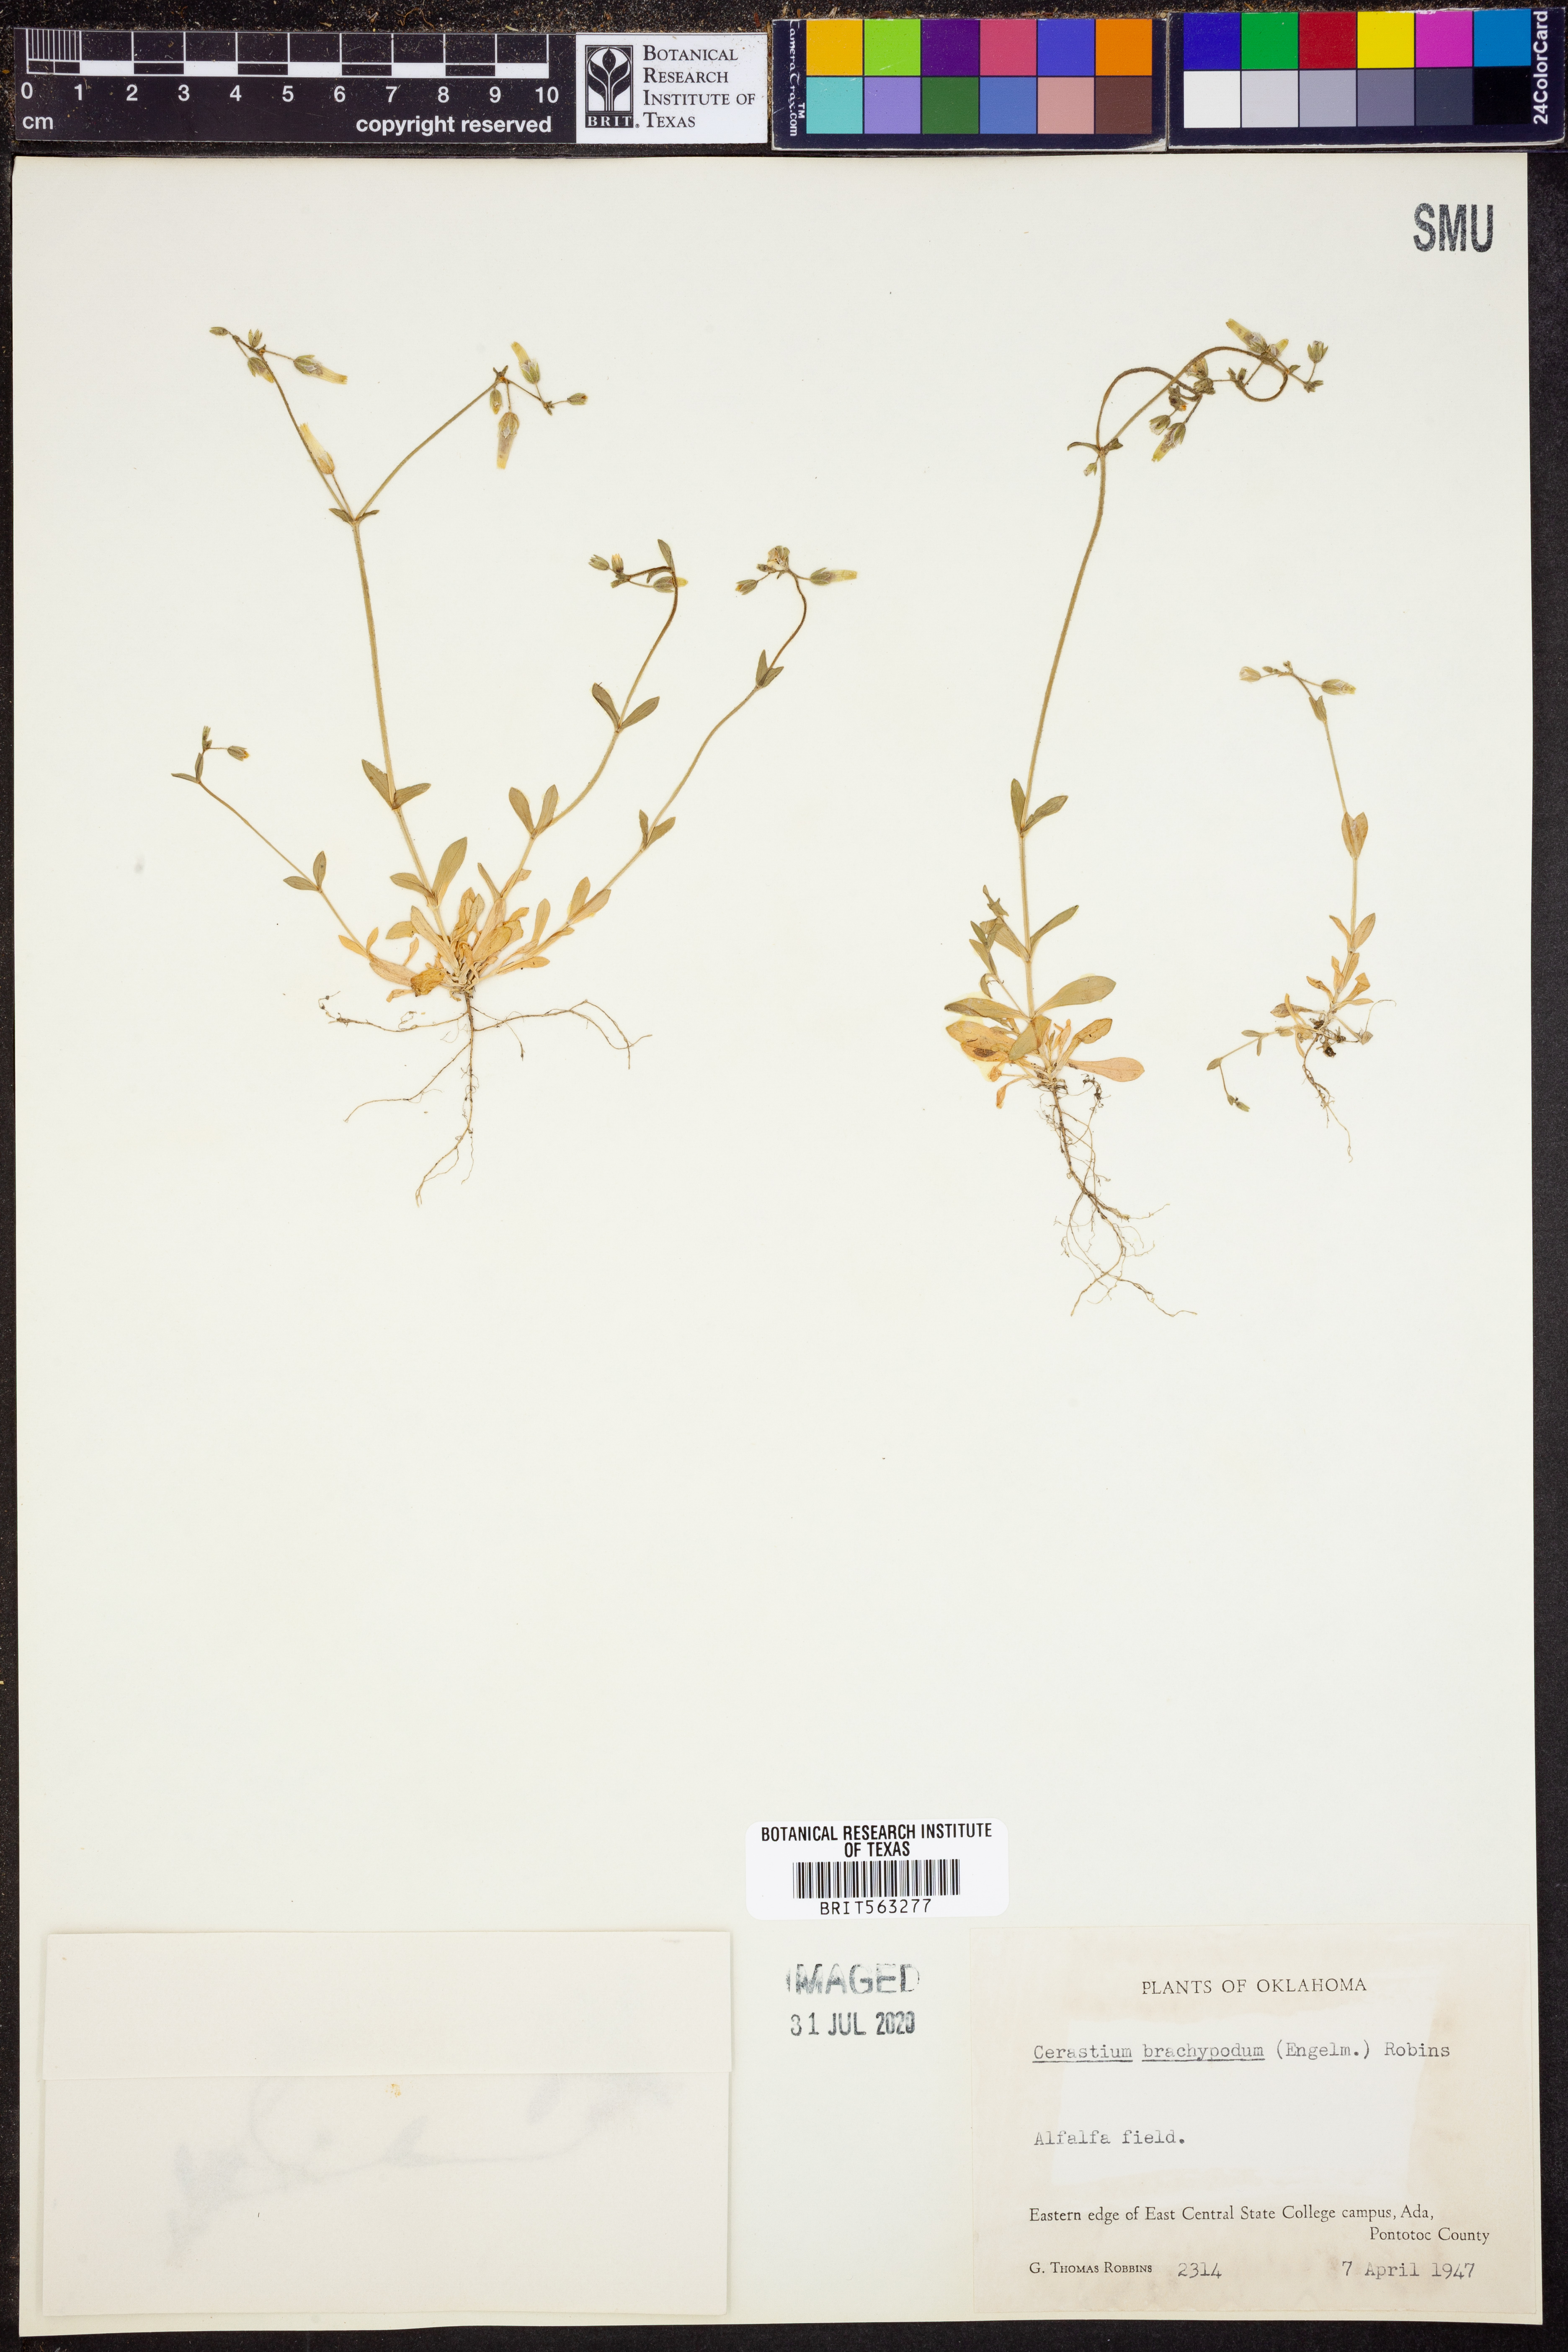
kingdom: Plantae
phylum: Tracheophyta
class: Magnoliopsida
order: Caryophyllales
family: Caryophyllaceae
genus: Cerastium
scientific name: Cerastium brachypodum
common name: Short-pedicelled nodding chickweed
